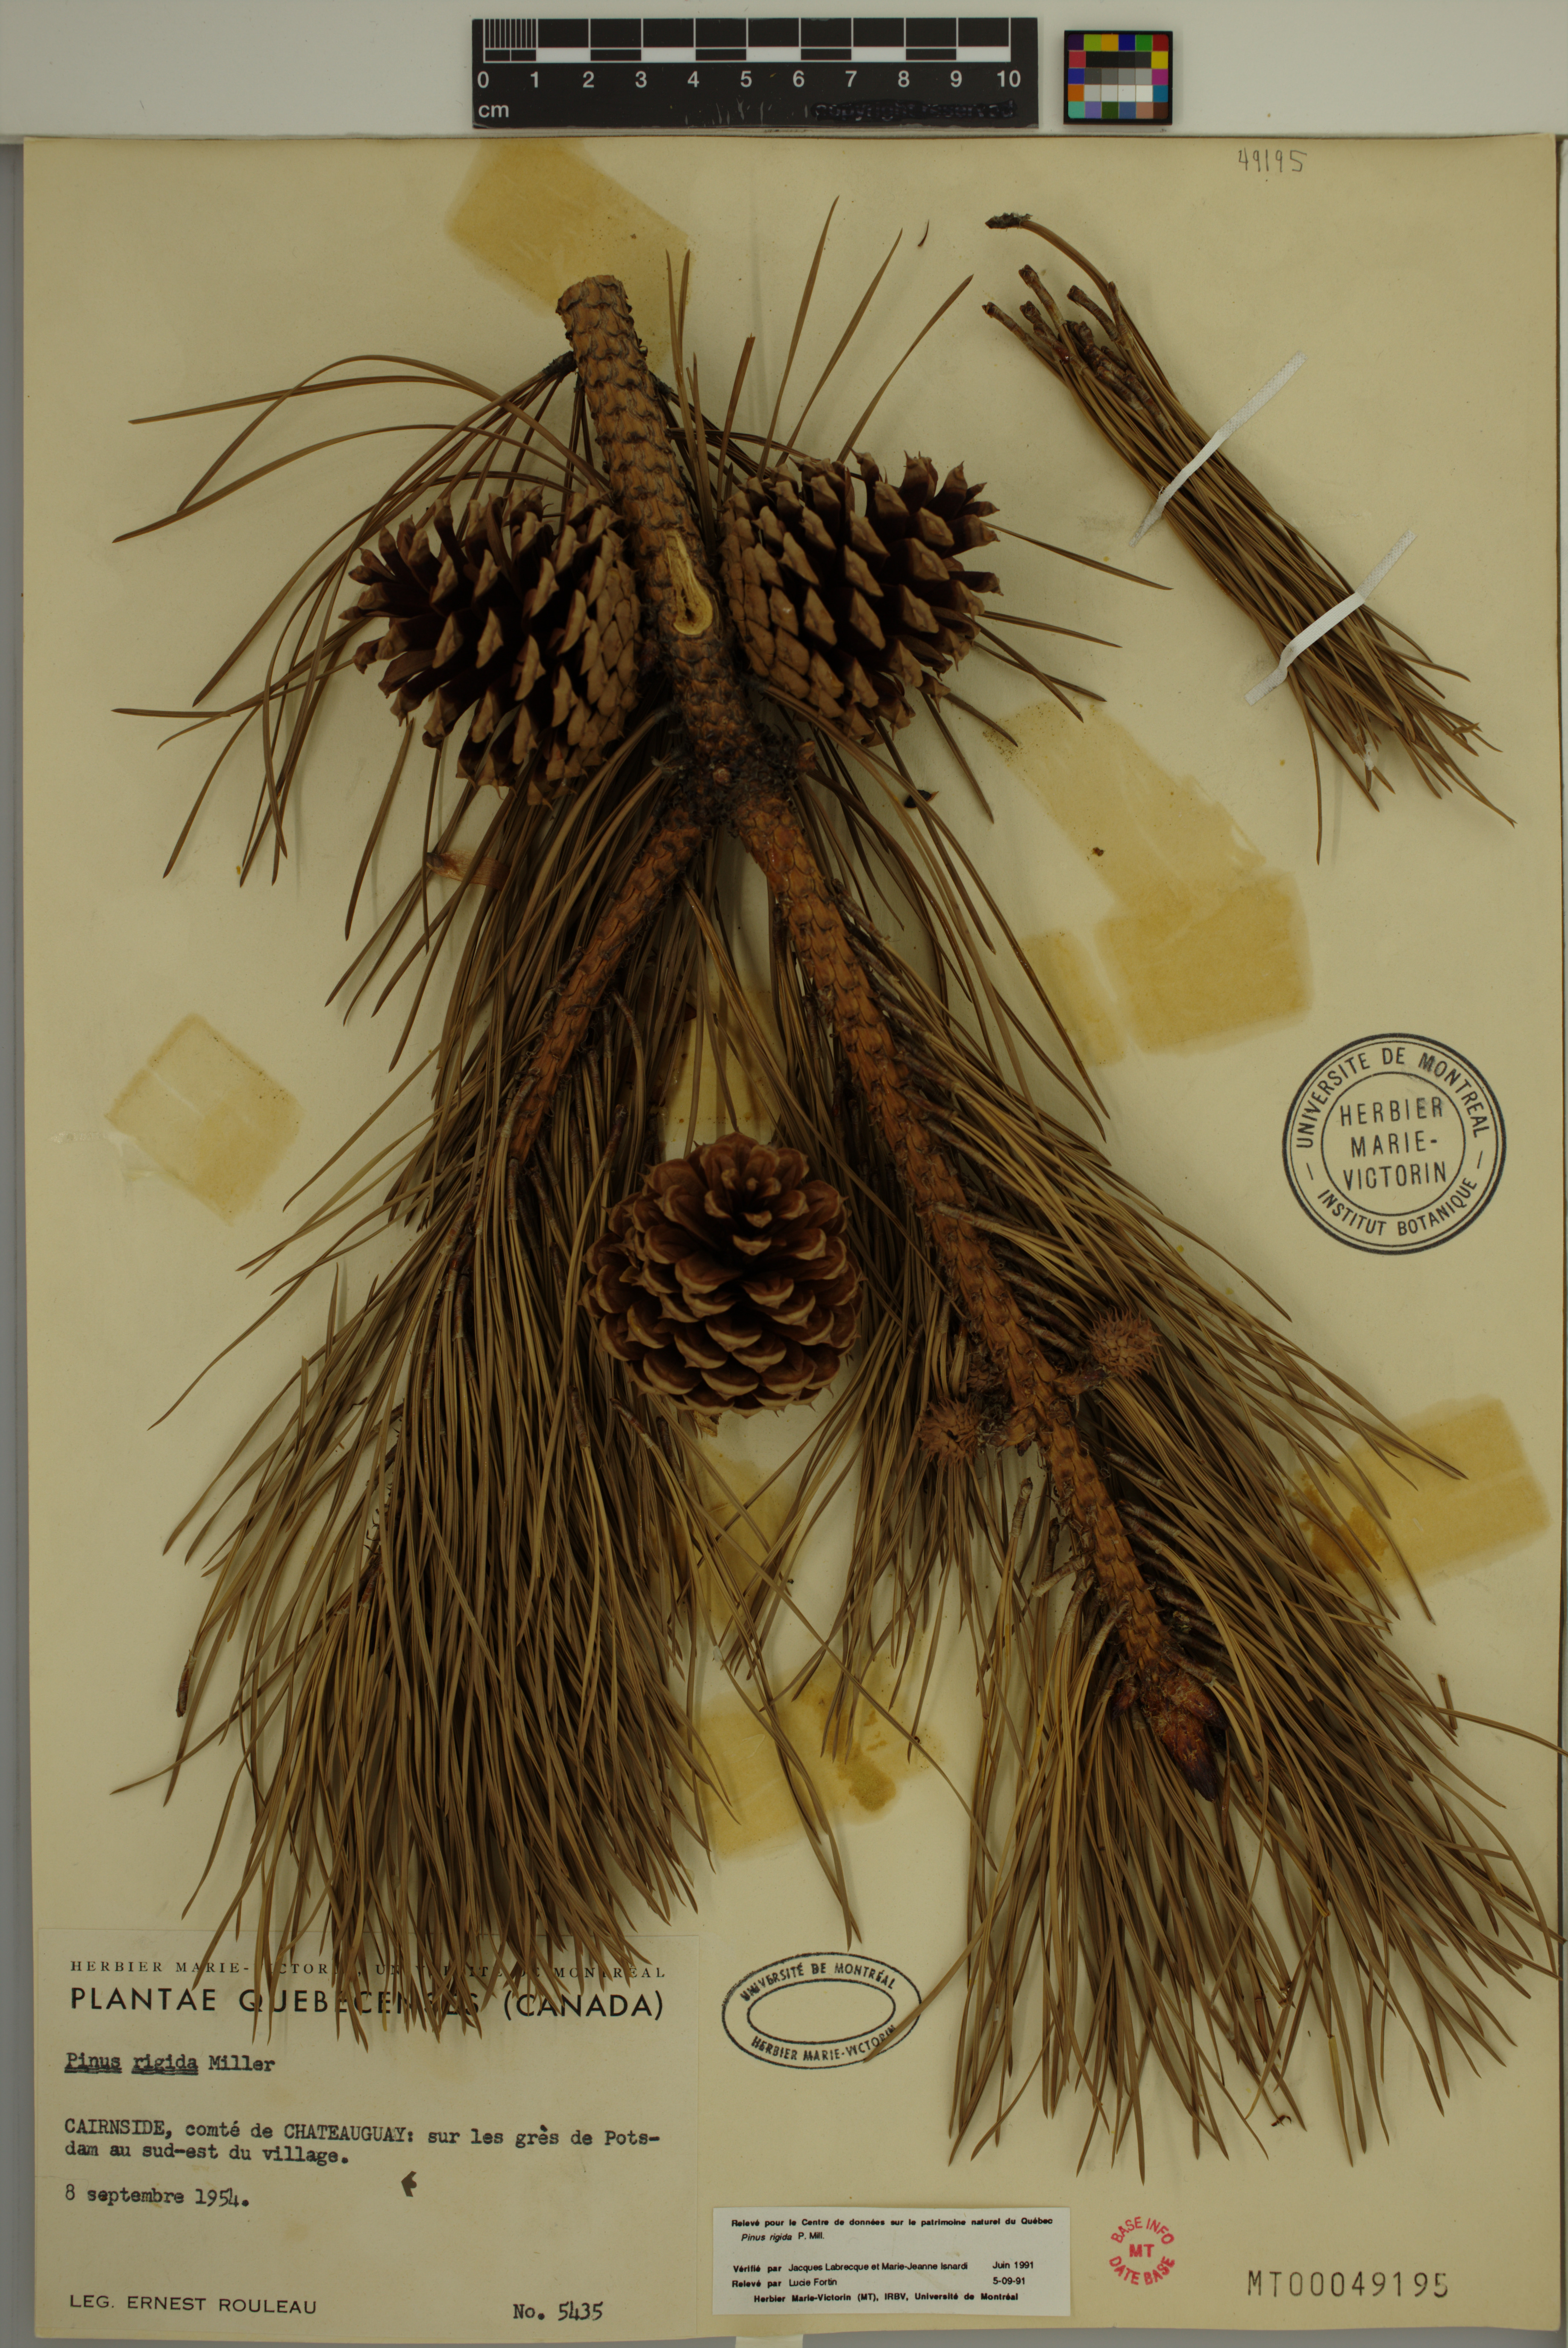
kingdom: Plantae
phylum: Tracheophyta
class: Pinopsida
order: Pinales
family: Pinaceae
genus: Pinus
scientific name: Pinus rigida
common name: Pitch pine
